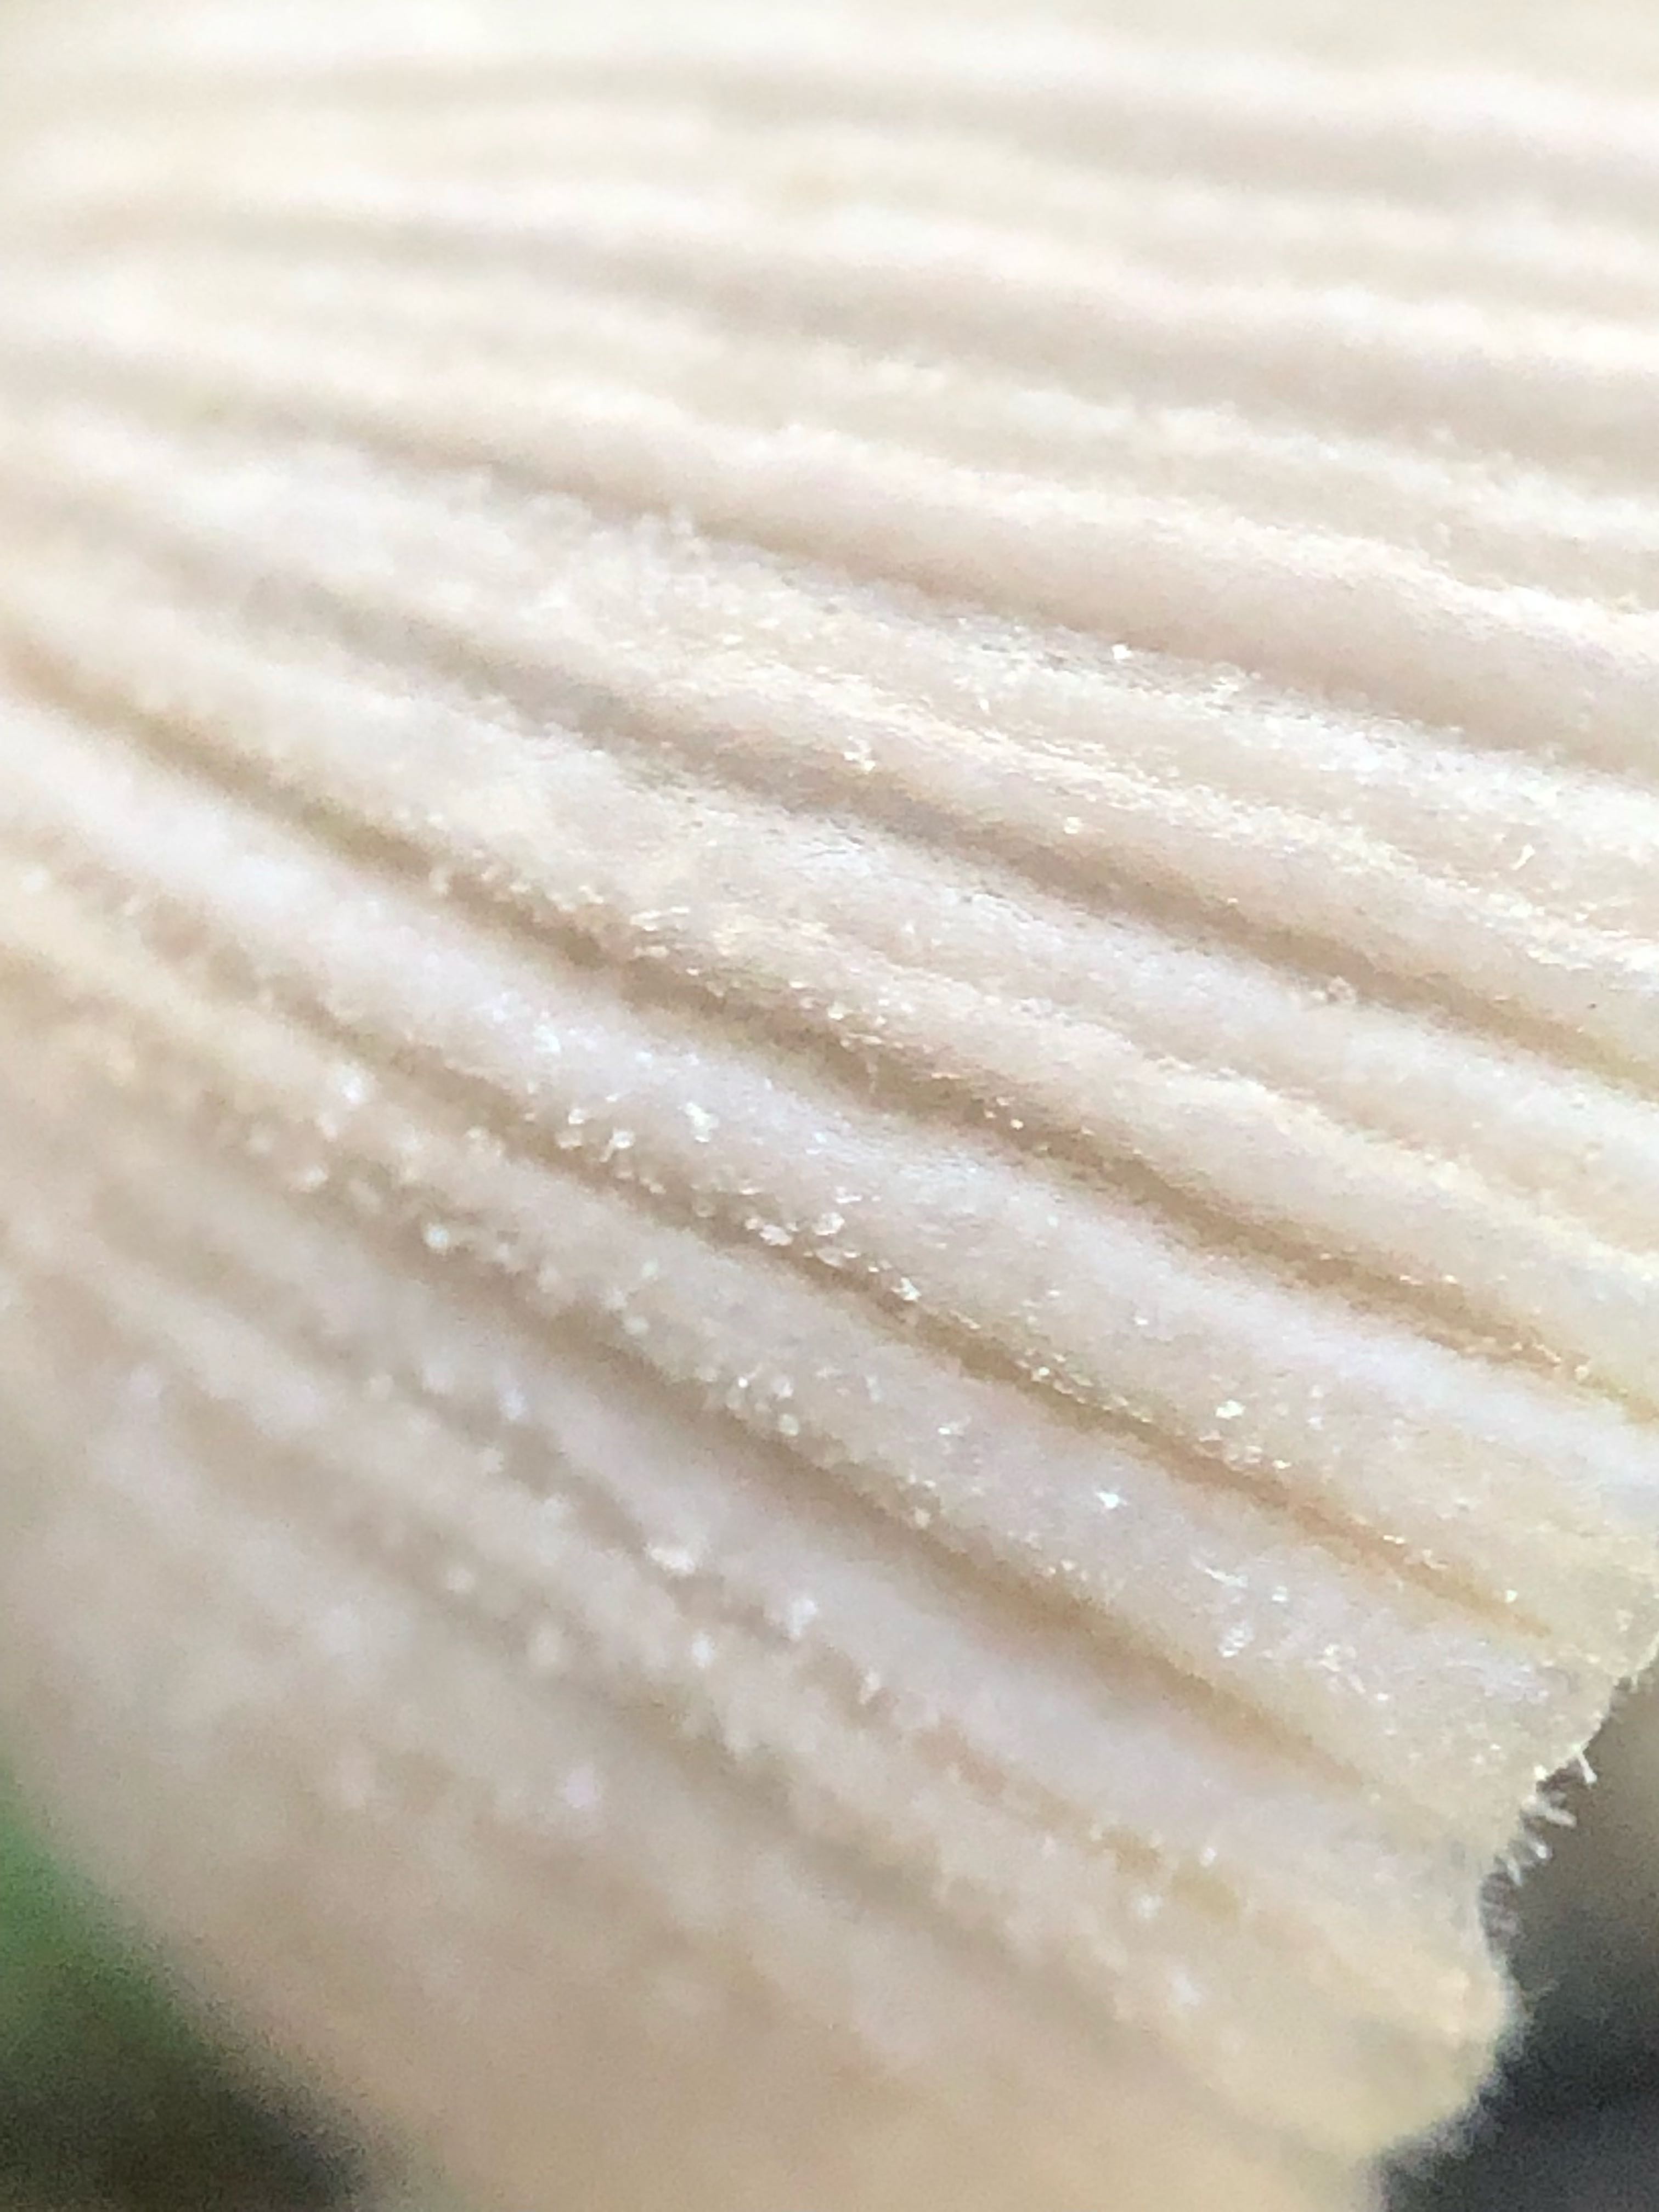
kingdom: Fungi
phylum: Basidiomycota
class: Agaricomycetes
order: Agaricales
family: Psathyrellaceae
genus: Coprinellus
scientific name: Coprinellus disseminatus
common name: bredsået blækhat
